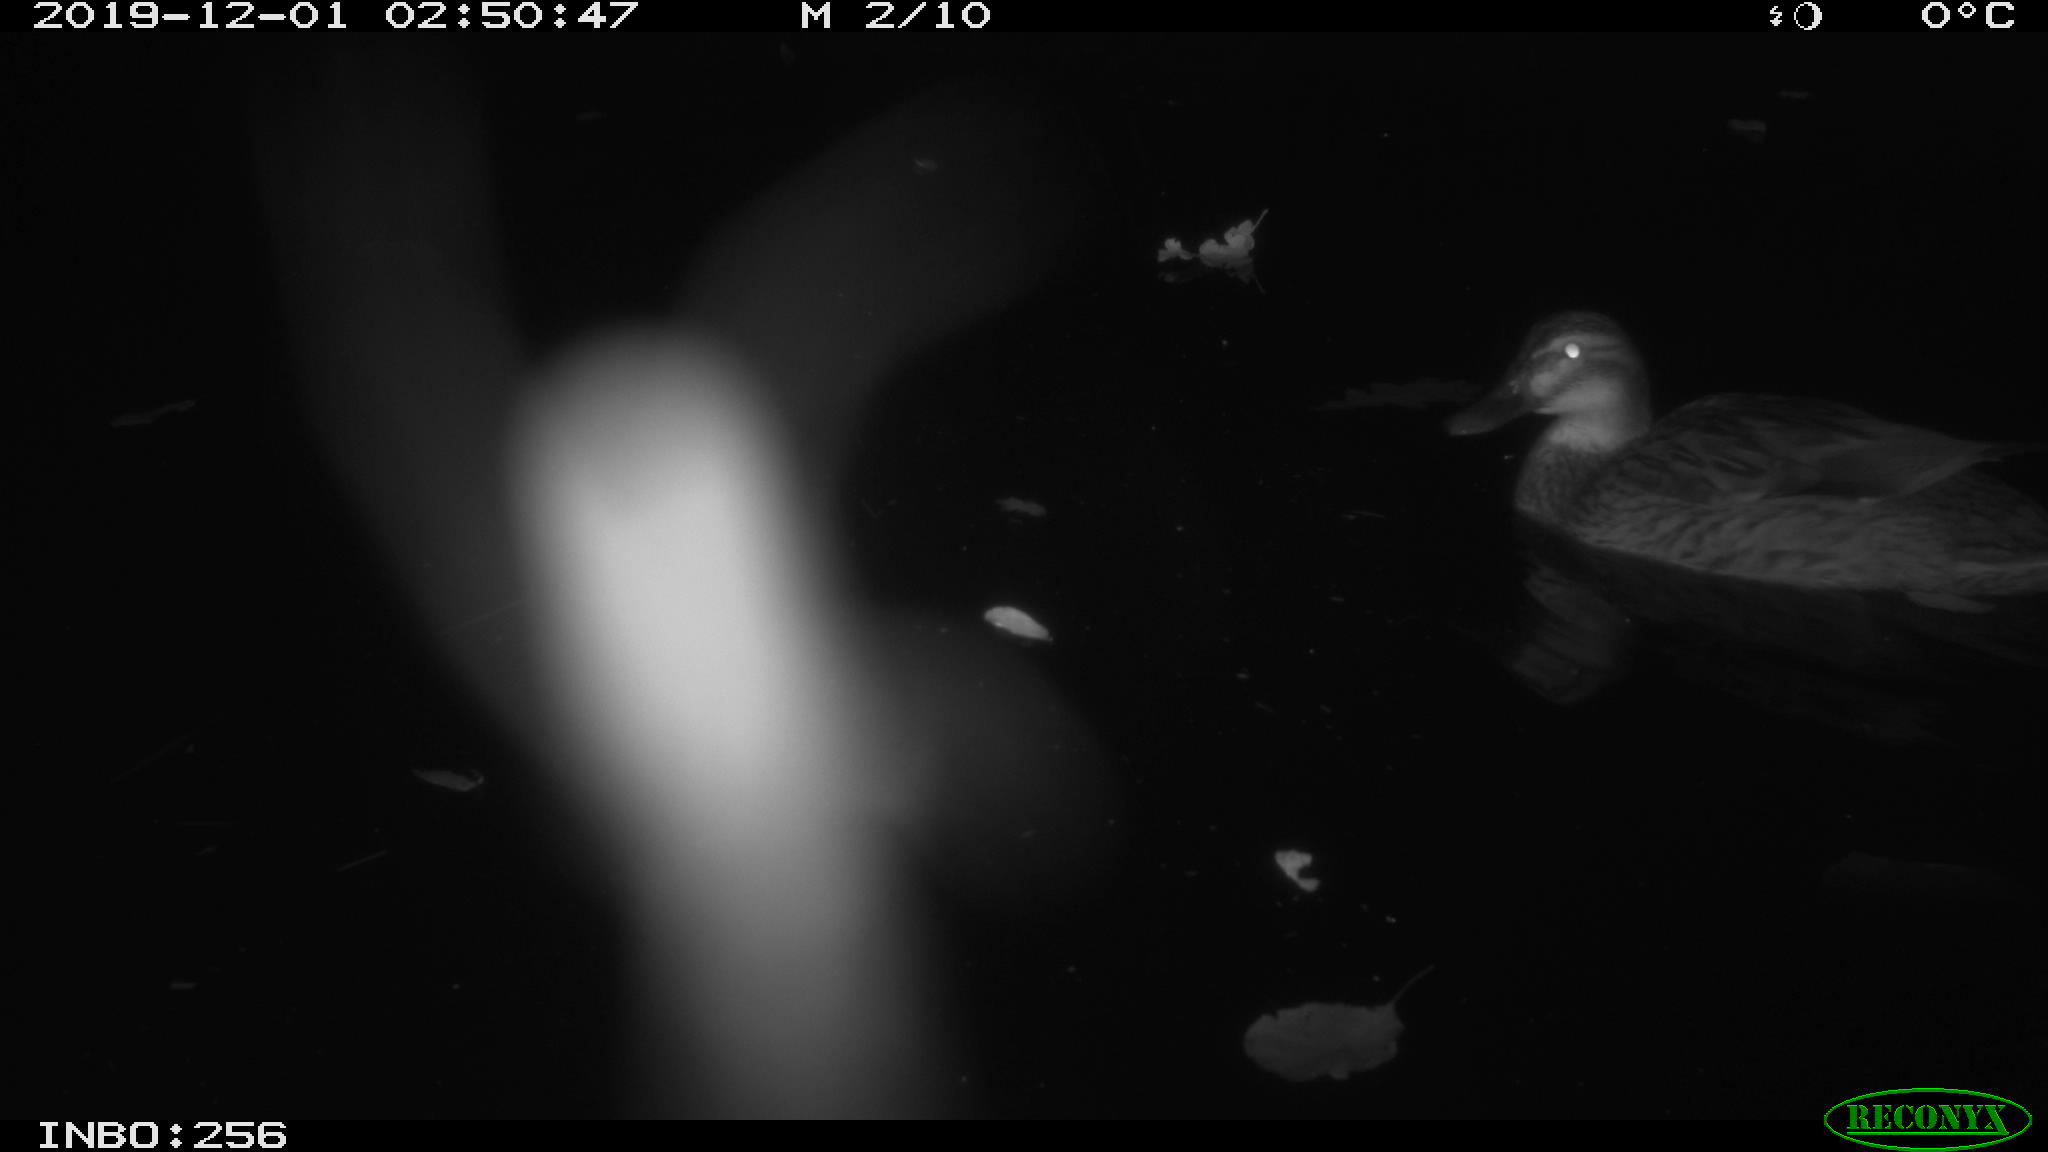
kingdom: Animalia
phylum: Chordata
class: Aves
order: Anseriformes
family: Anatidae
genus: Anas
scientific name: Anas platyrhynchos
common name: Mallard
